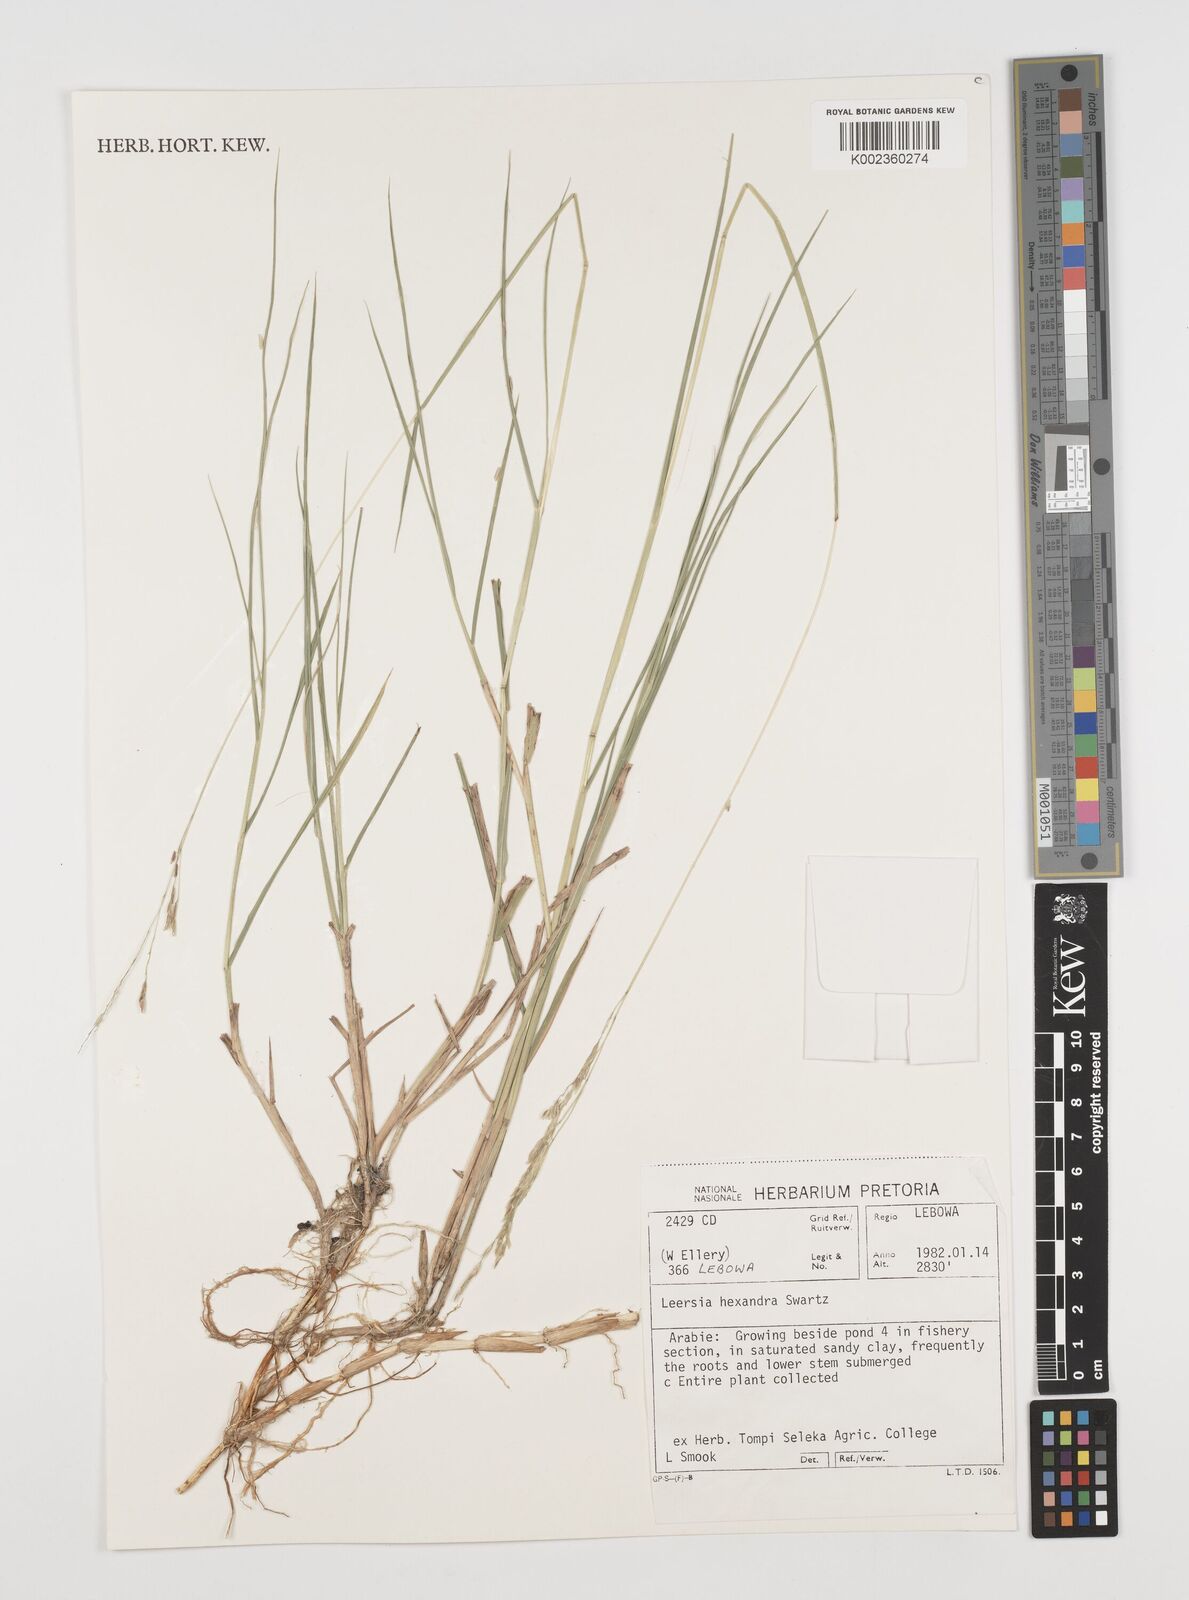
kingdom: Plantae
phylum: Tracheophyta
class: Liliopsida
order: Poales
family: Poaceae
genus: Leersia
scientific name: Leersia hexandra
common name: Southern cut grass
